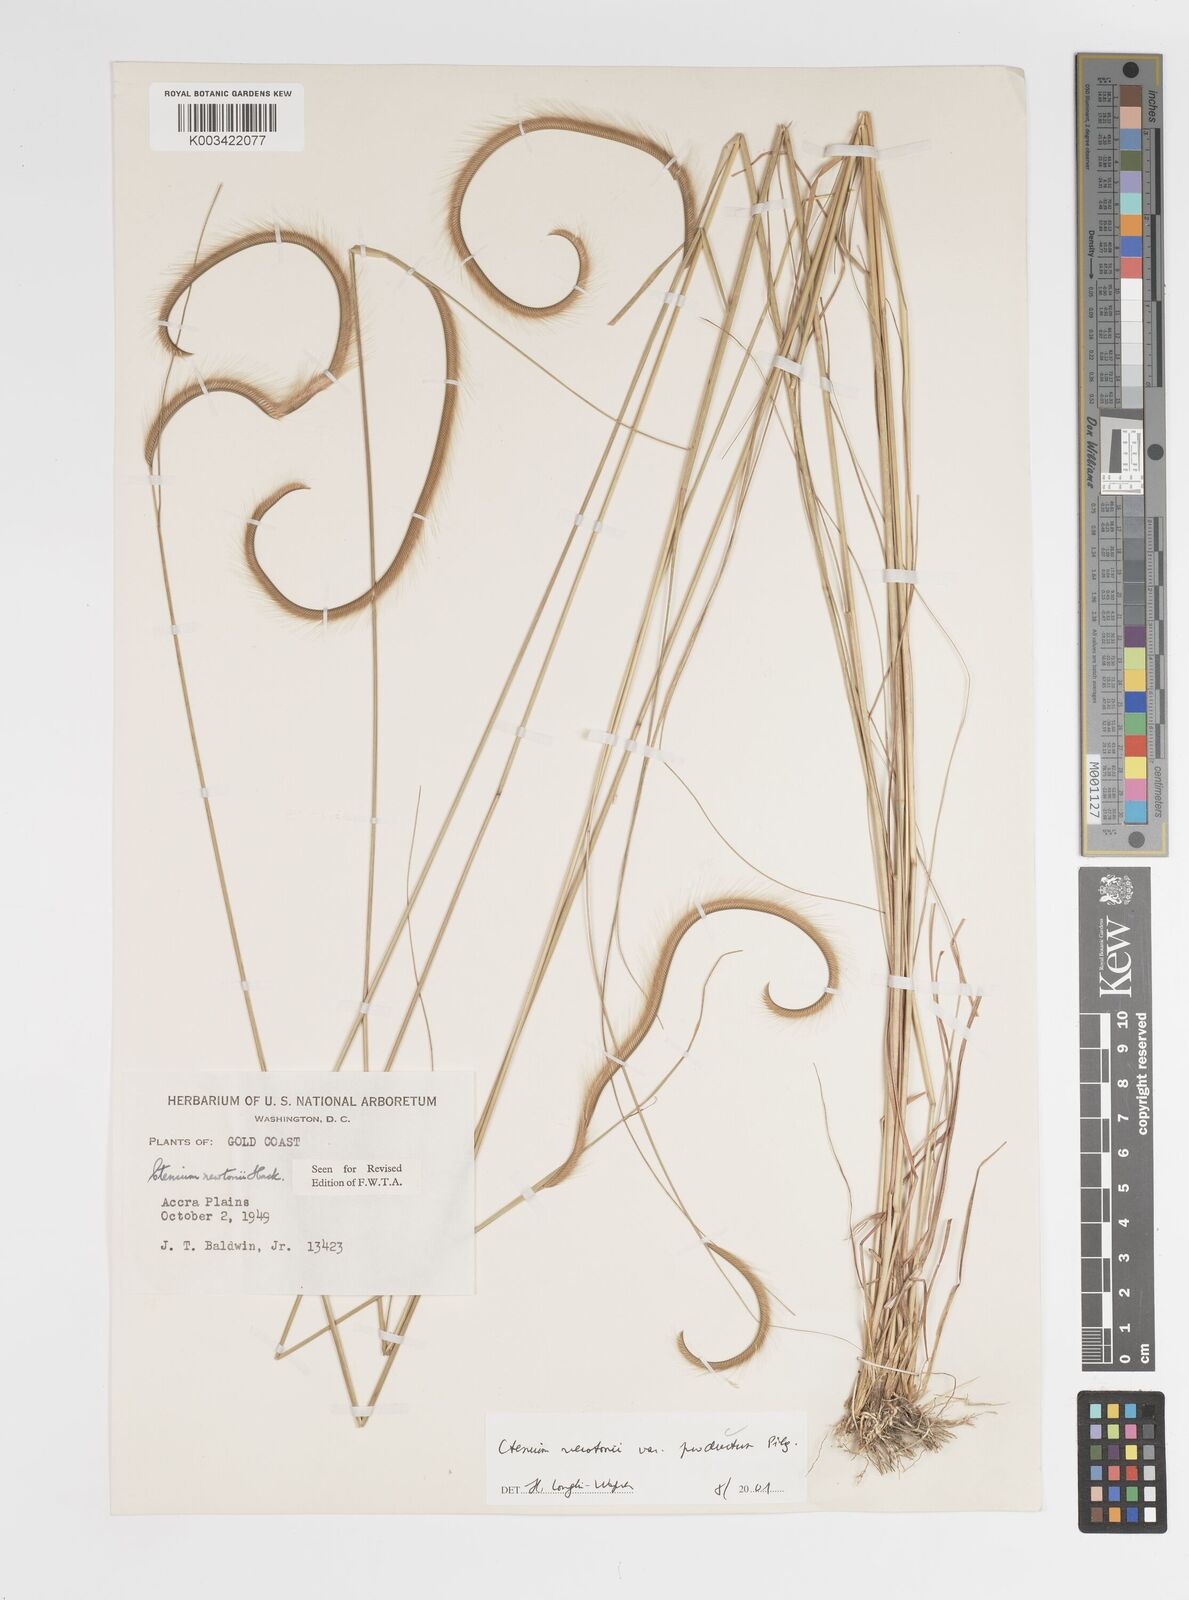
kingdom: Plantae
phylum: Tracheophyta
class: Liliopsida
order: Poales
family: Poaceae
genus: Ctenium
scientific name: Ctenium newtonii
